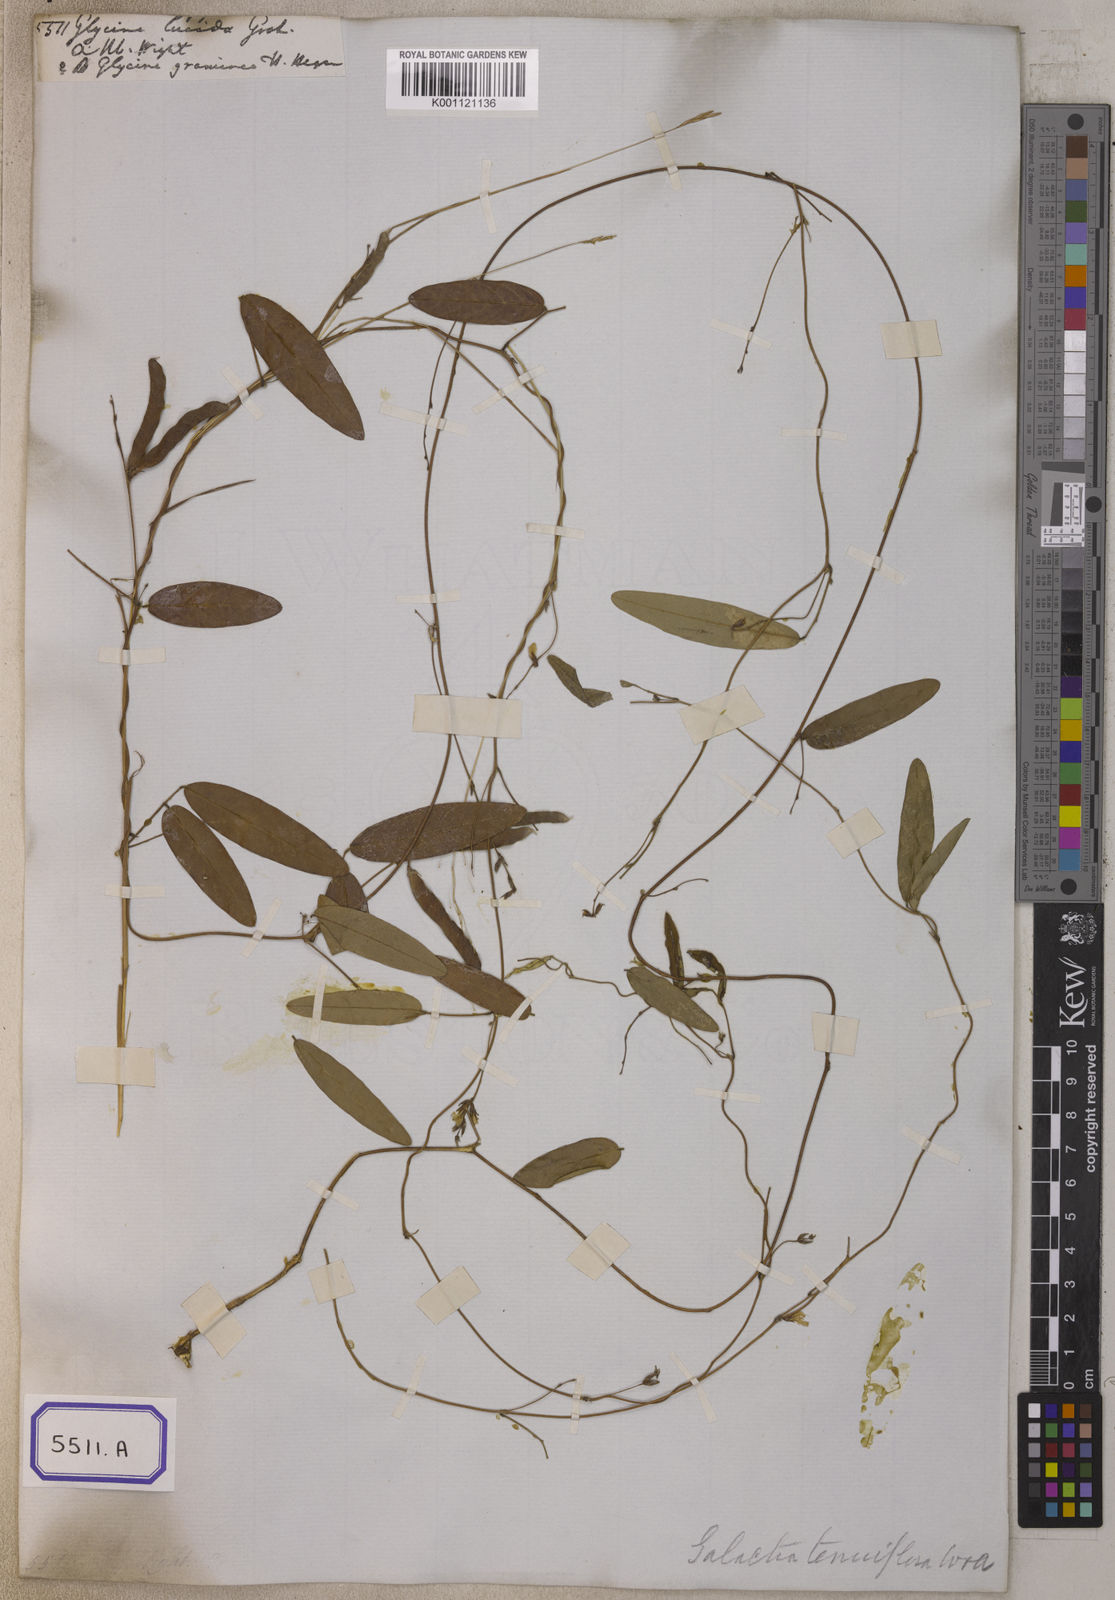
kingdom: Plantae
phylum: Tracheophyta
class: Magnoliopsida
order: Fabales
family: Fabaceae
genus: Glycine
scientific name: Glycine
